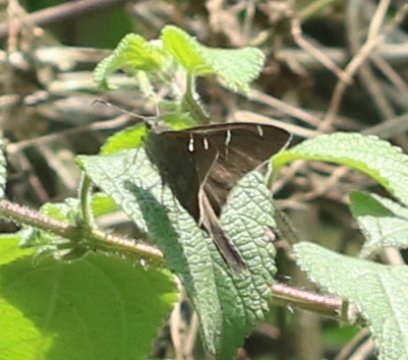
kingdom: Animalia
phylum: Arthropoda
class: Insecta
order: Lepidoptera
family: Hesperiidae
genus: Urbanus
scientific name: Urbanus teleus
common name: Teleus Longtail
